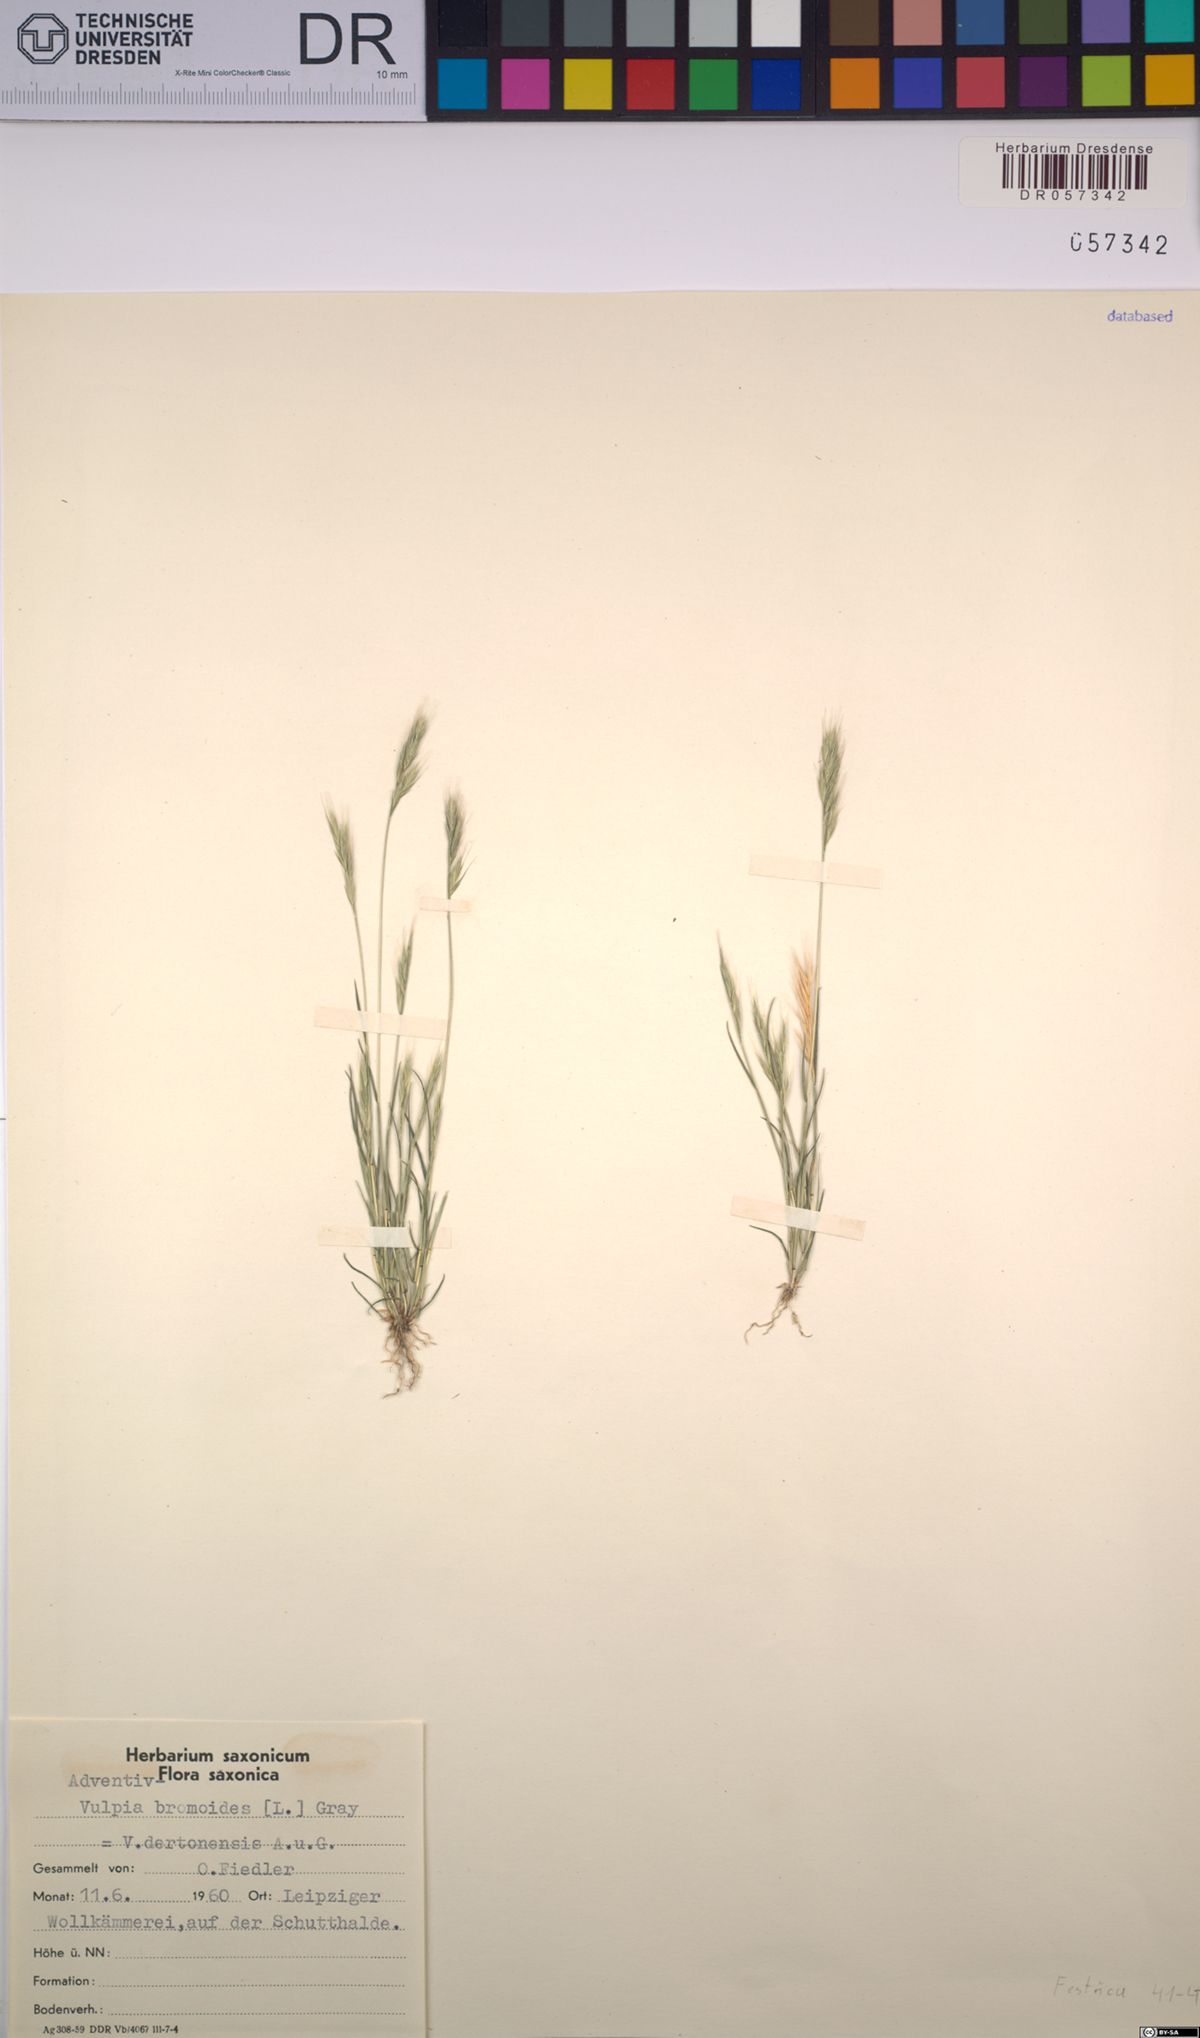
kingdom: Plantae
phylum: Tracheophyta
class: Liliopsida
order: Poales
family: Poaceae
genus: Festuca
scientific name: Festuca bromoides
